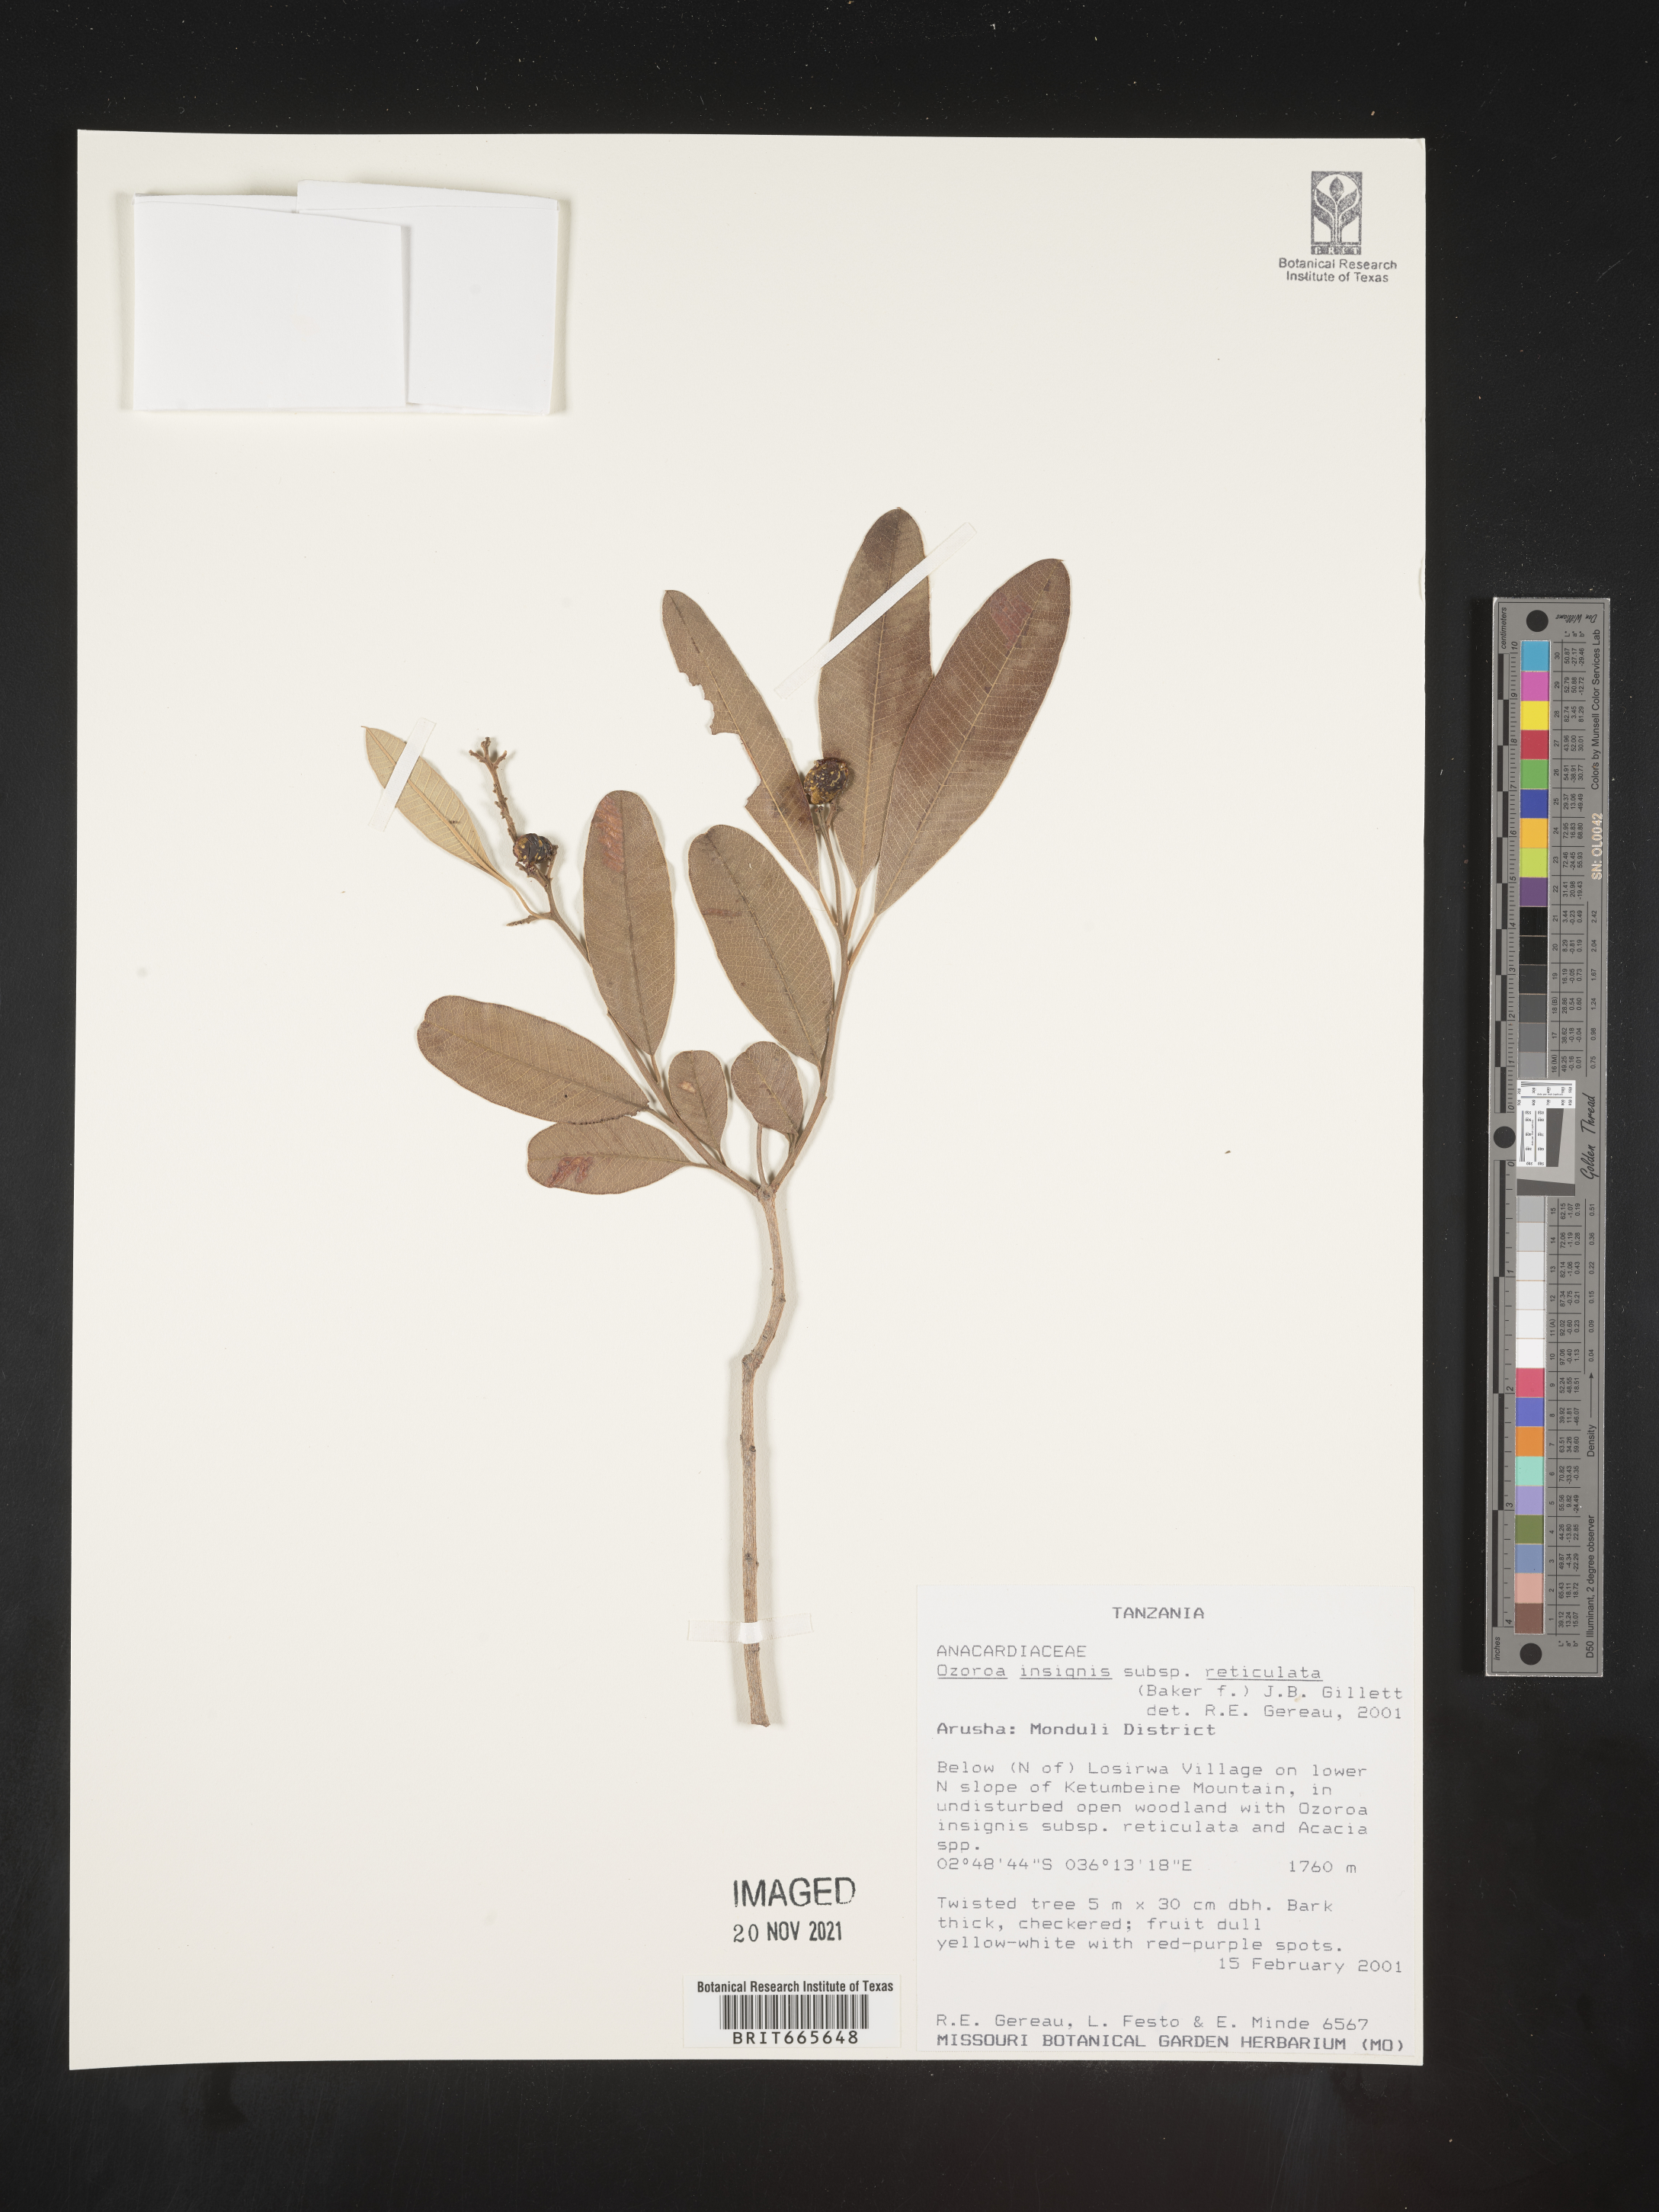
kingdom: Plantae
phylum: Tracheophyta
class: Magnoliopsida
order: Sapindales
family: Anacardiaceae
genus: Ozoroa
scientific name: Ozoroa
